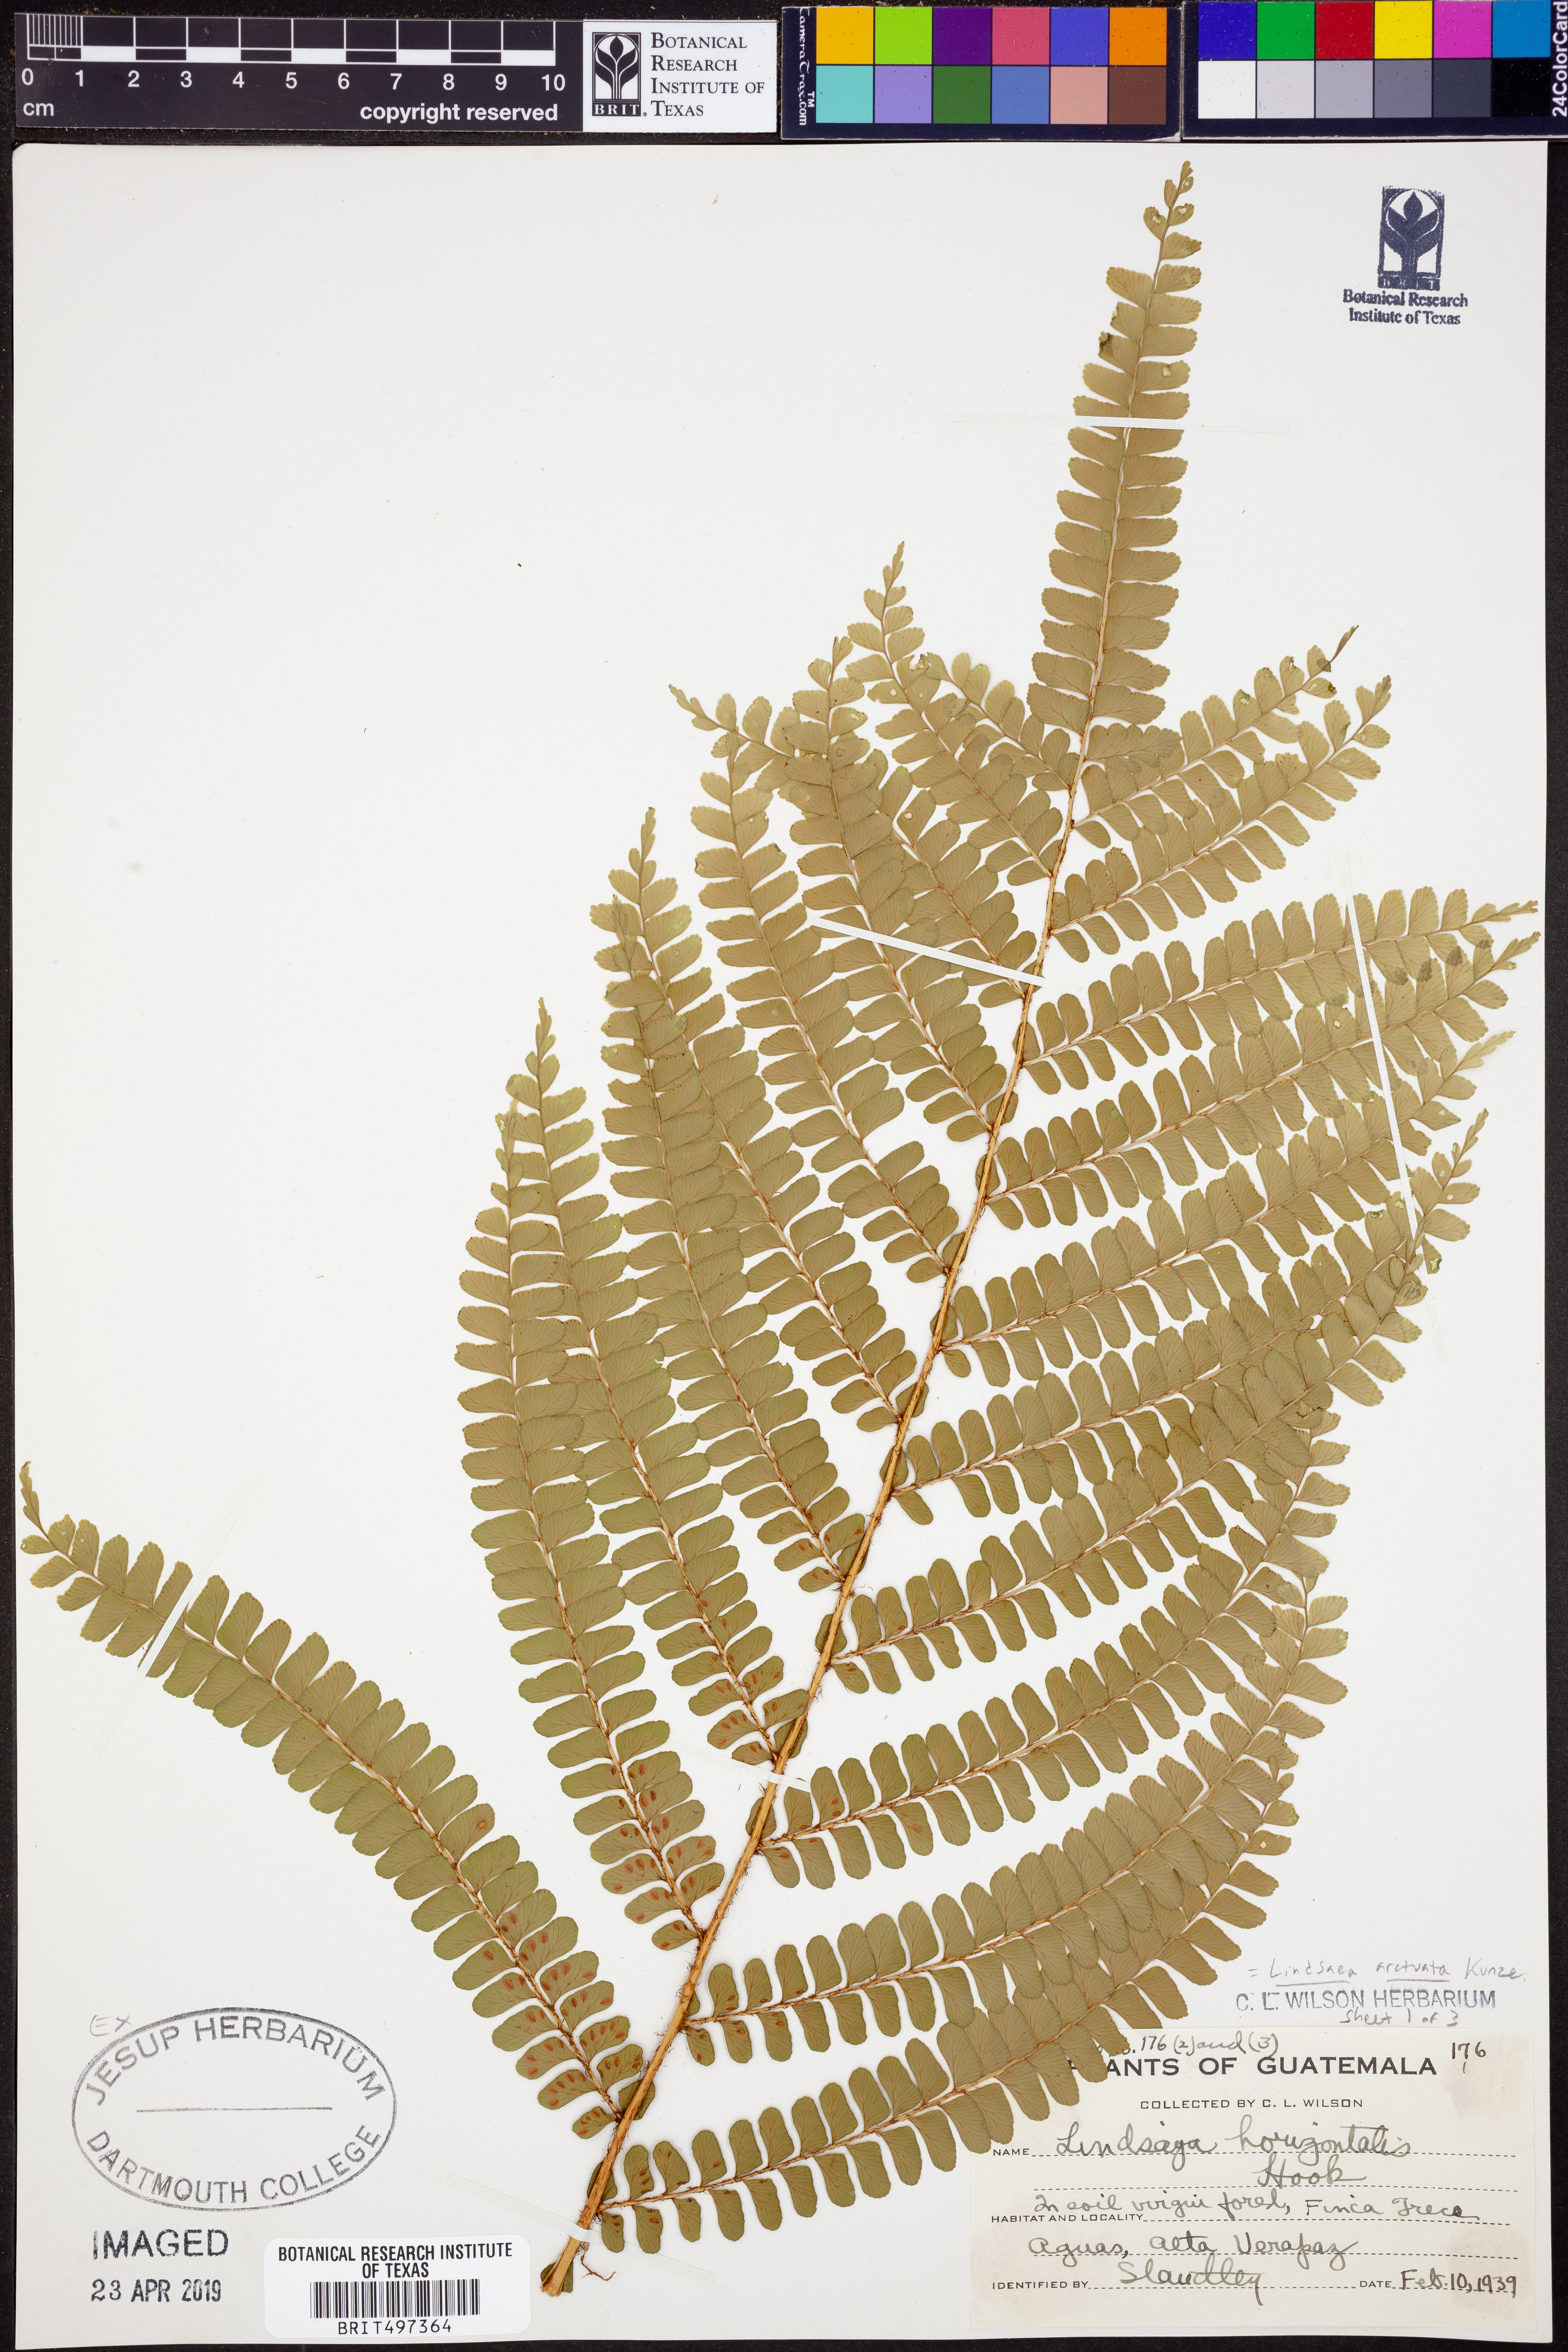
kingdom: Plantae
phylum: Tracheophyta
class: Polypodiopsida
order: Polypodiales
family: Lindsaeaceae
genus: Lindsaea
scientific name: Lindsaea arcuata
